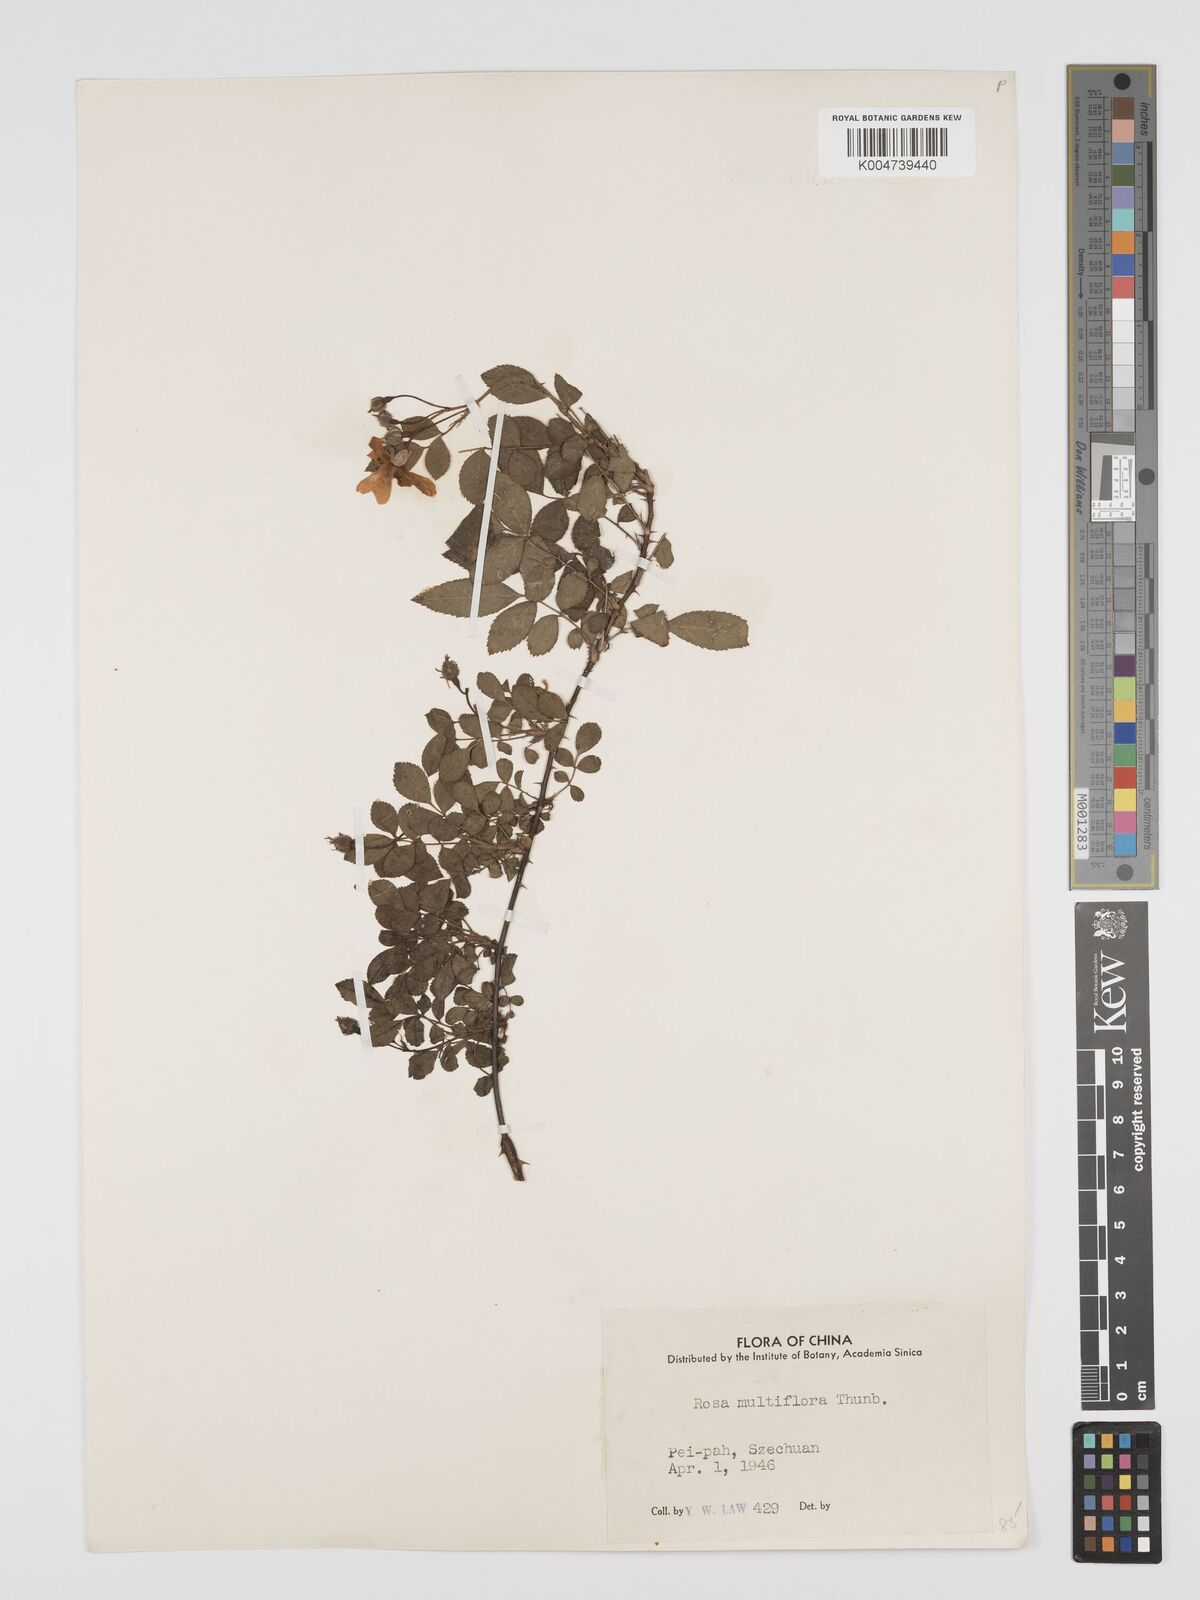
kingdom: Plantae
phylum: Tracheophyta
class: Magnoliopsida
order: Rosales
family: Rosaceae
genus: Rosa
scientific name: Rosa
